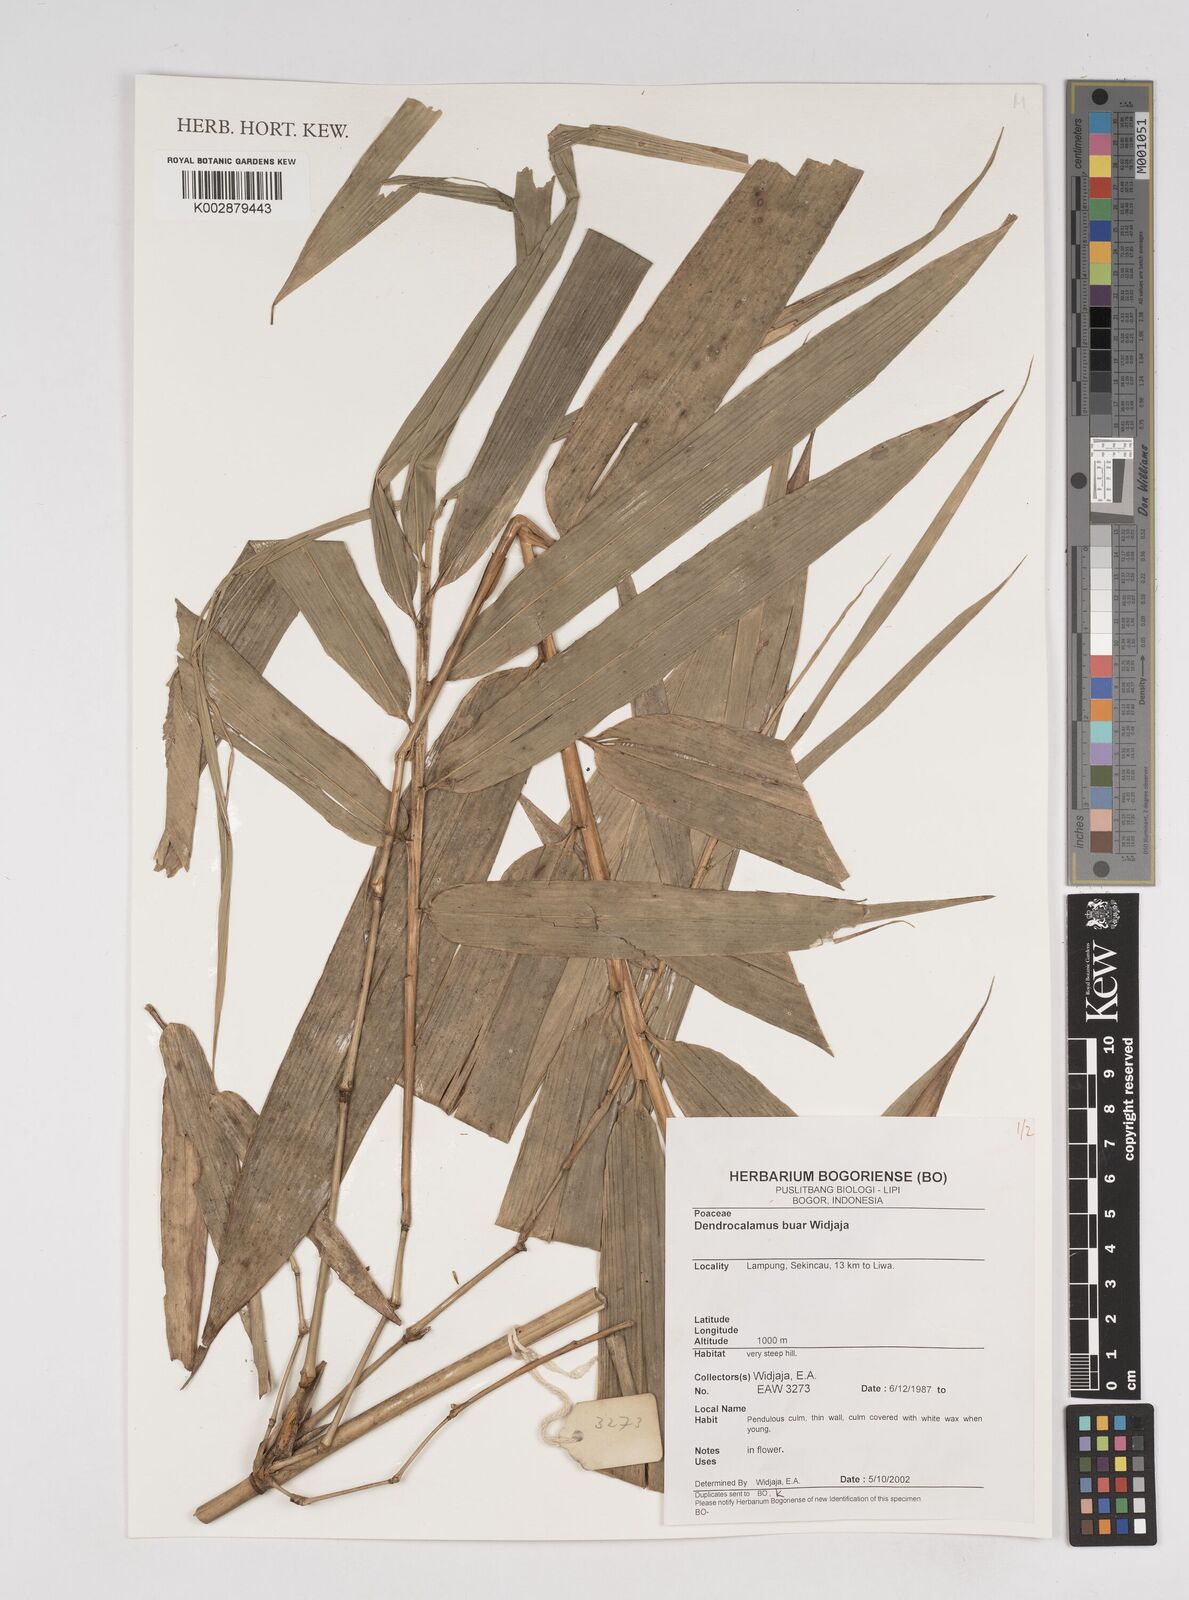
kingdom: Plantae
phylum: Tracheophyta
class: Liliopsida
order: Poales
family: Poaceae
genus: Dendrocalamus
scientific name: Dendrocalamus buar
